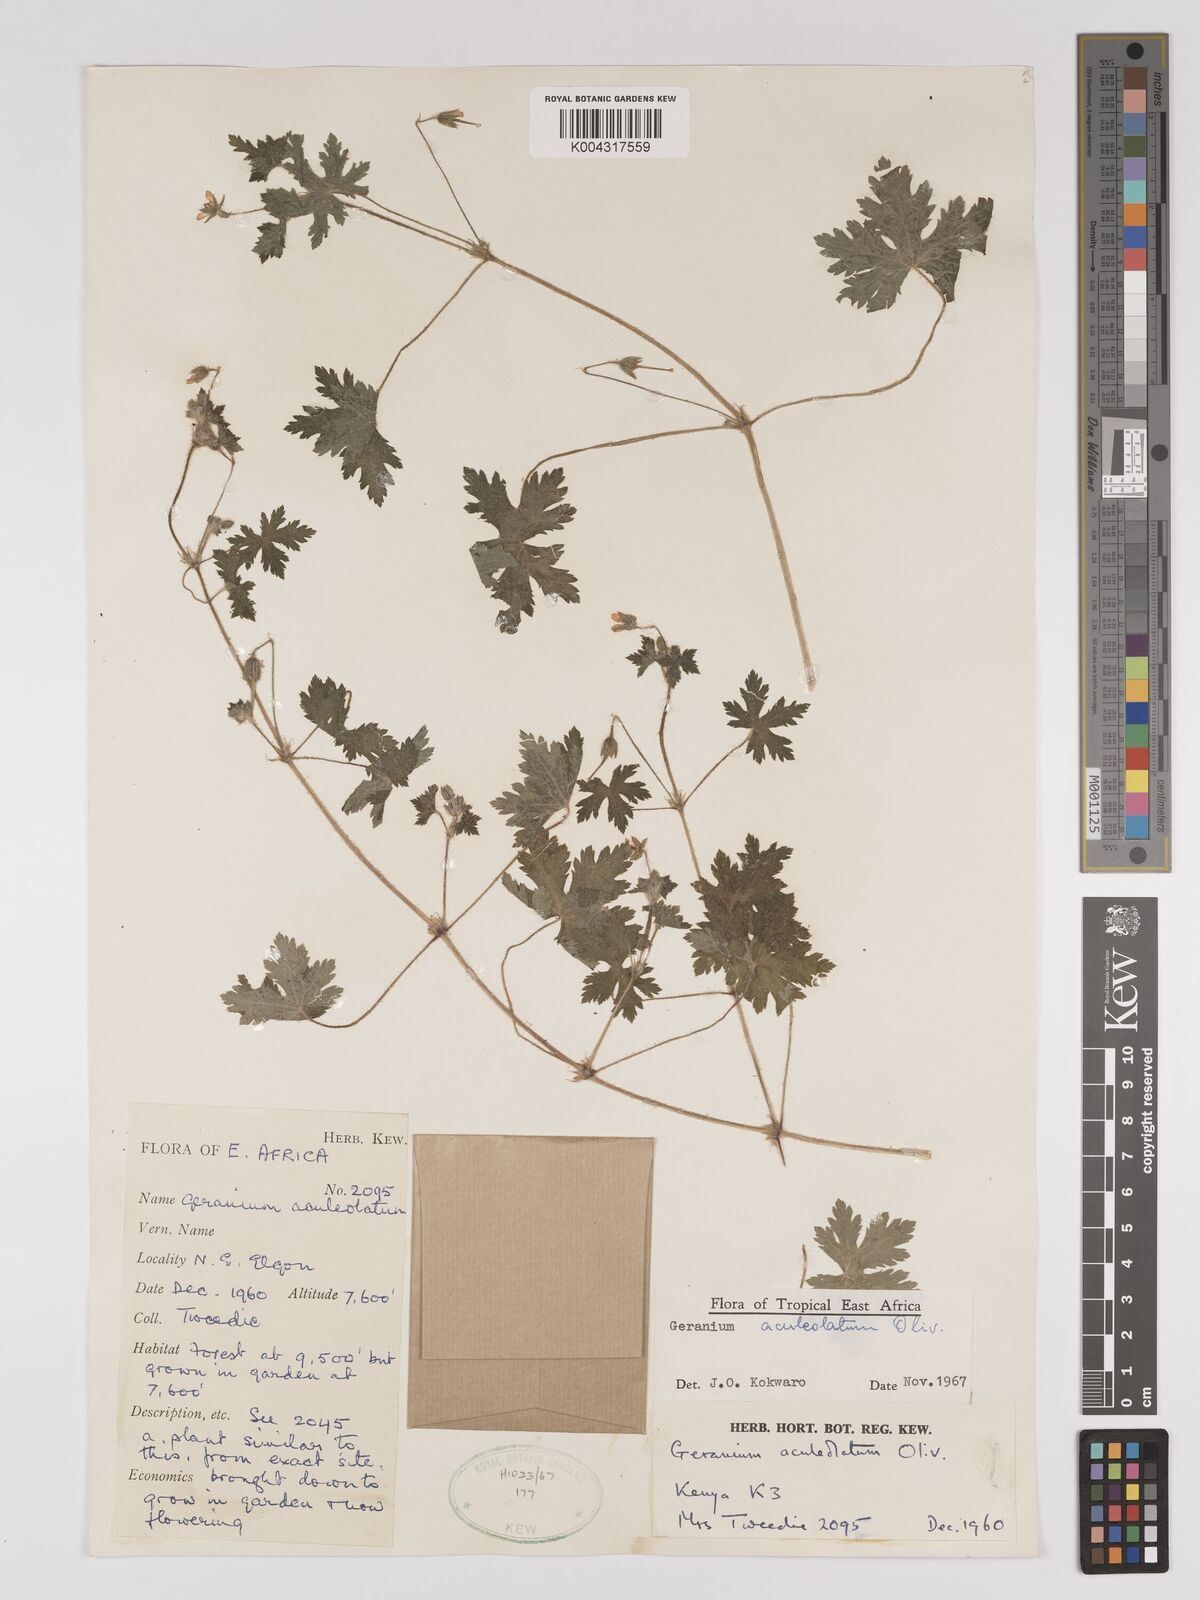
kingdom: Plantae
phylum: Tracheophyta
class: Magnoliopsida
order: Geraniales
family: Geraniaceae
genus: Geranium
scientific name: Geranium aculeolatum
